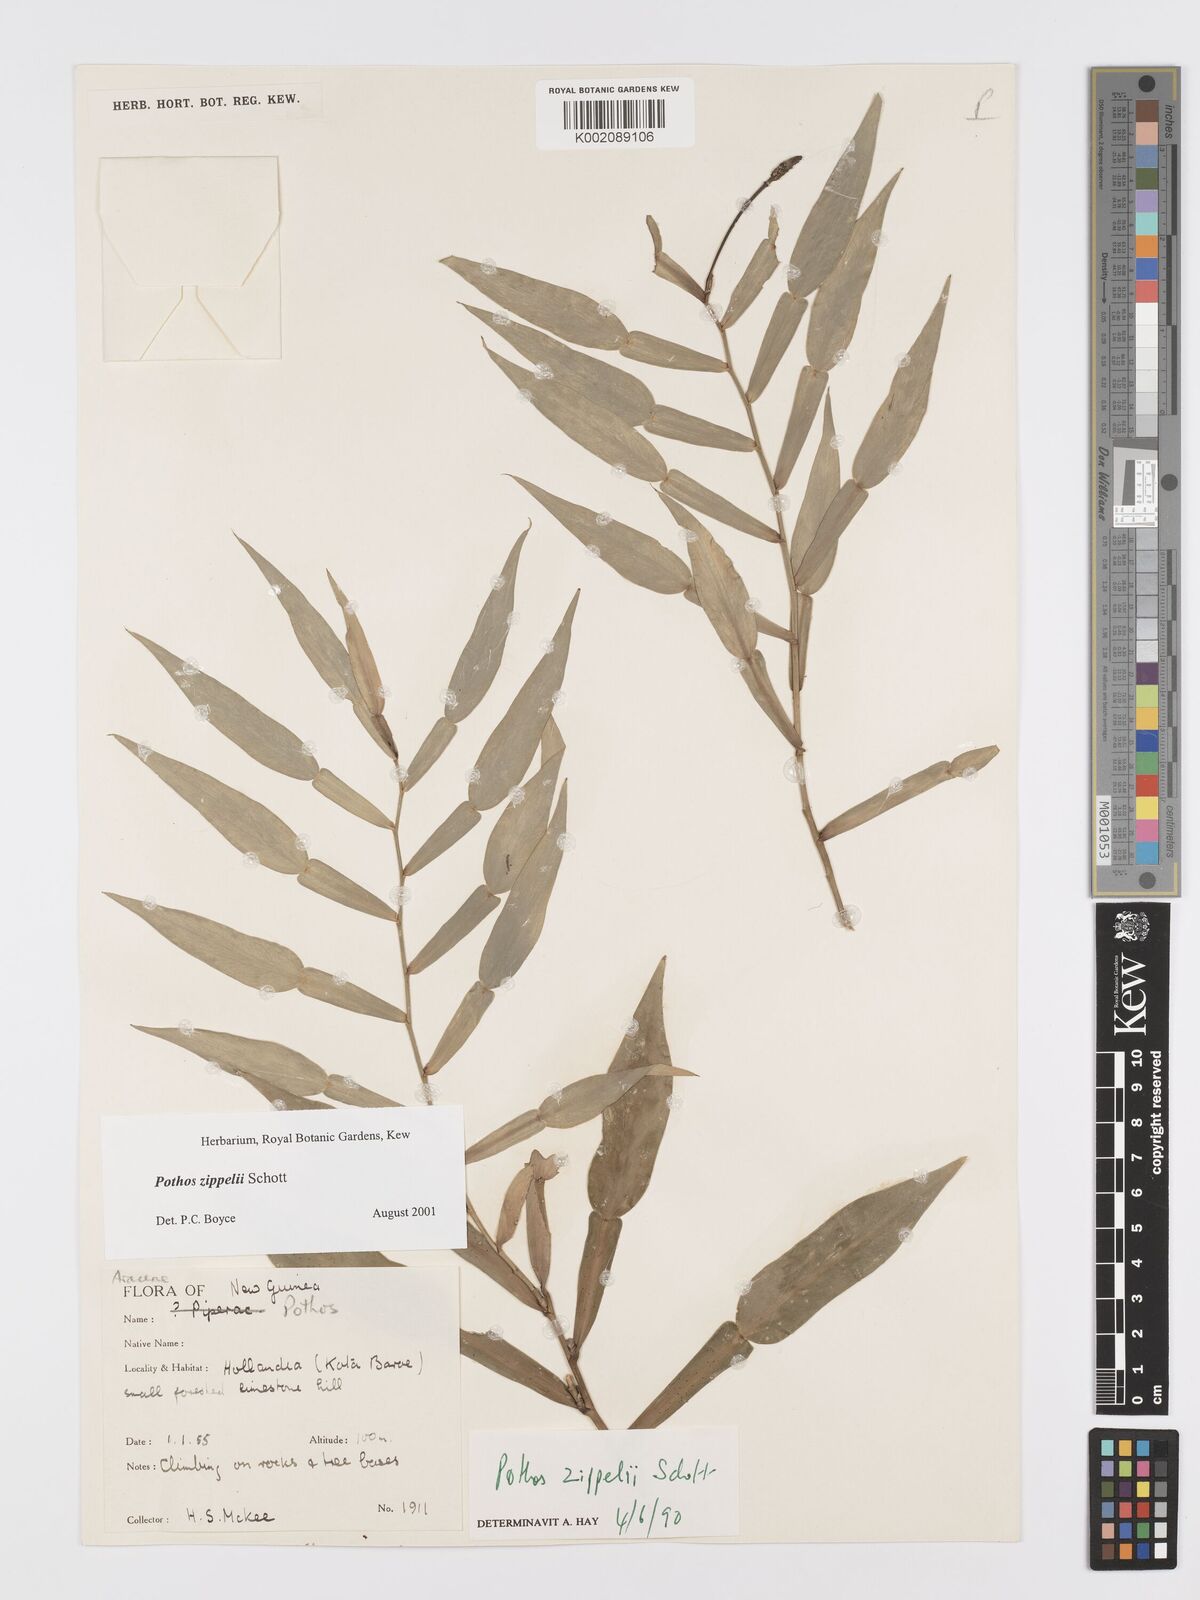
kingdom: Plantae
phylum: Tracheophyta
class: Liliopsida
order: Alismatales
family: Araceae
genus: Pothos
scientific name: Pothos zippelii
